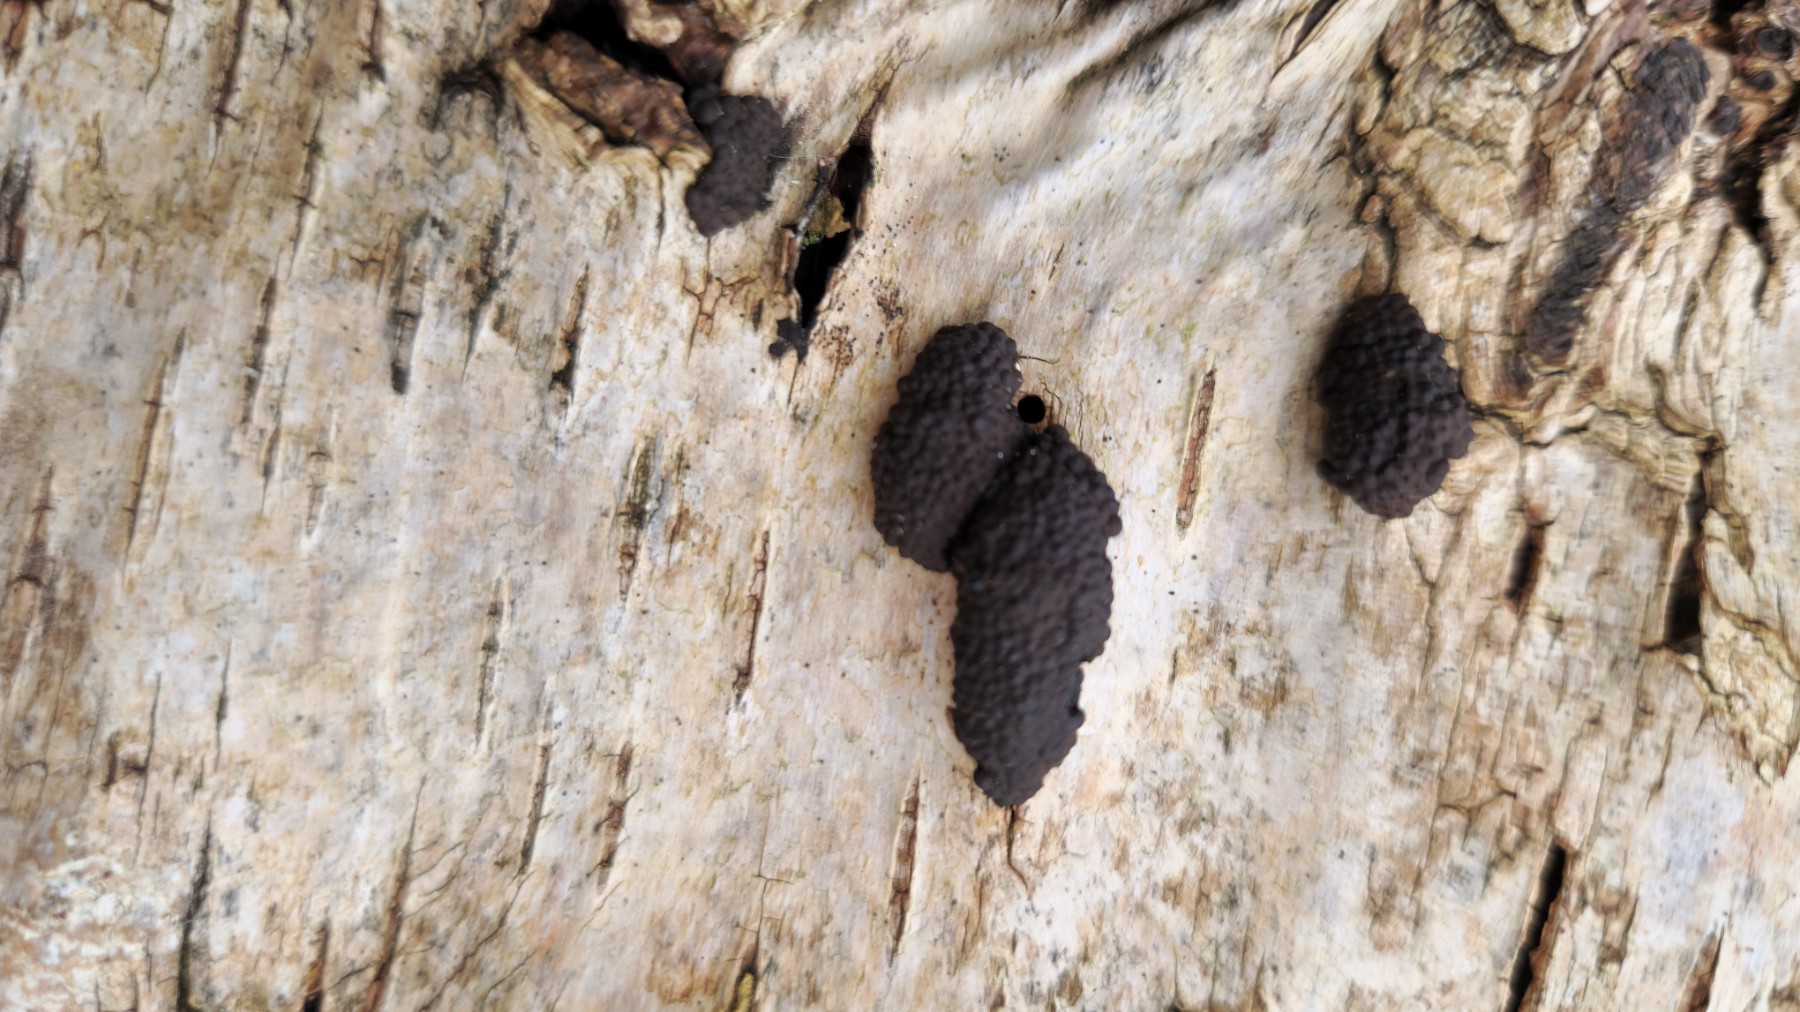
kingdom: Fungi
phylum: Ascomycota
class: Sordariomycetes
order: Xylariales
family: Hypoxylaceae
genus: Jackrogersella
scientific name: Jackrogersella multiformis
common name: foranderlig kulbær
